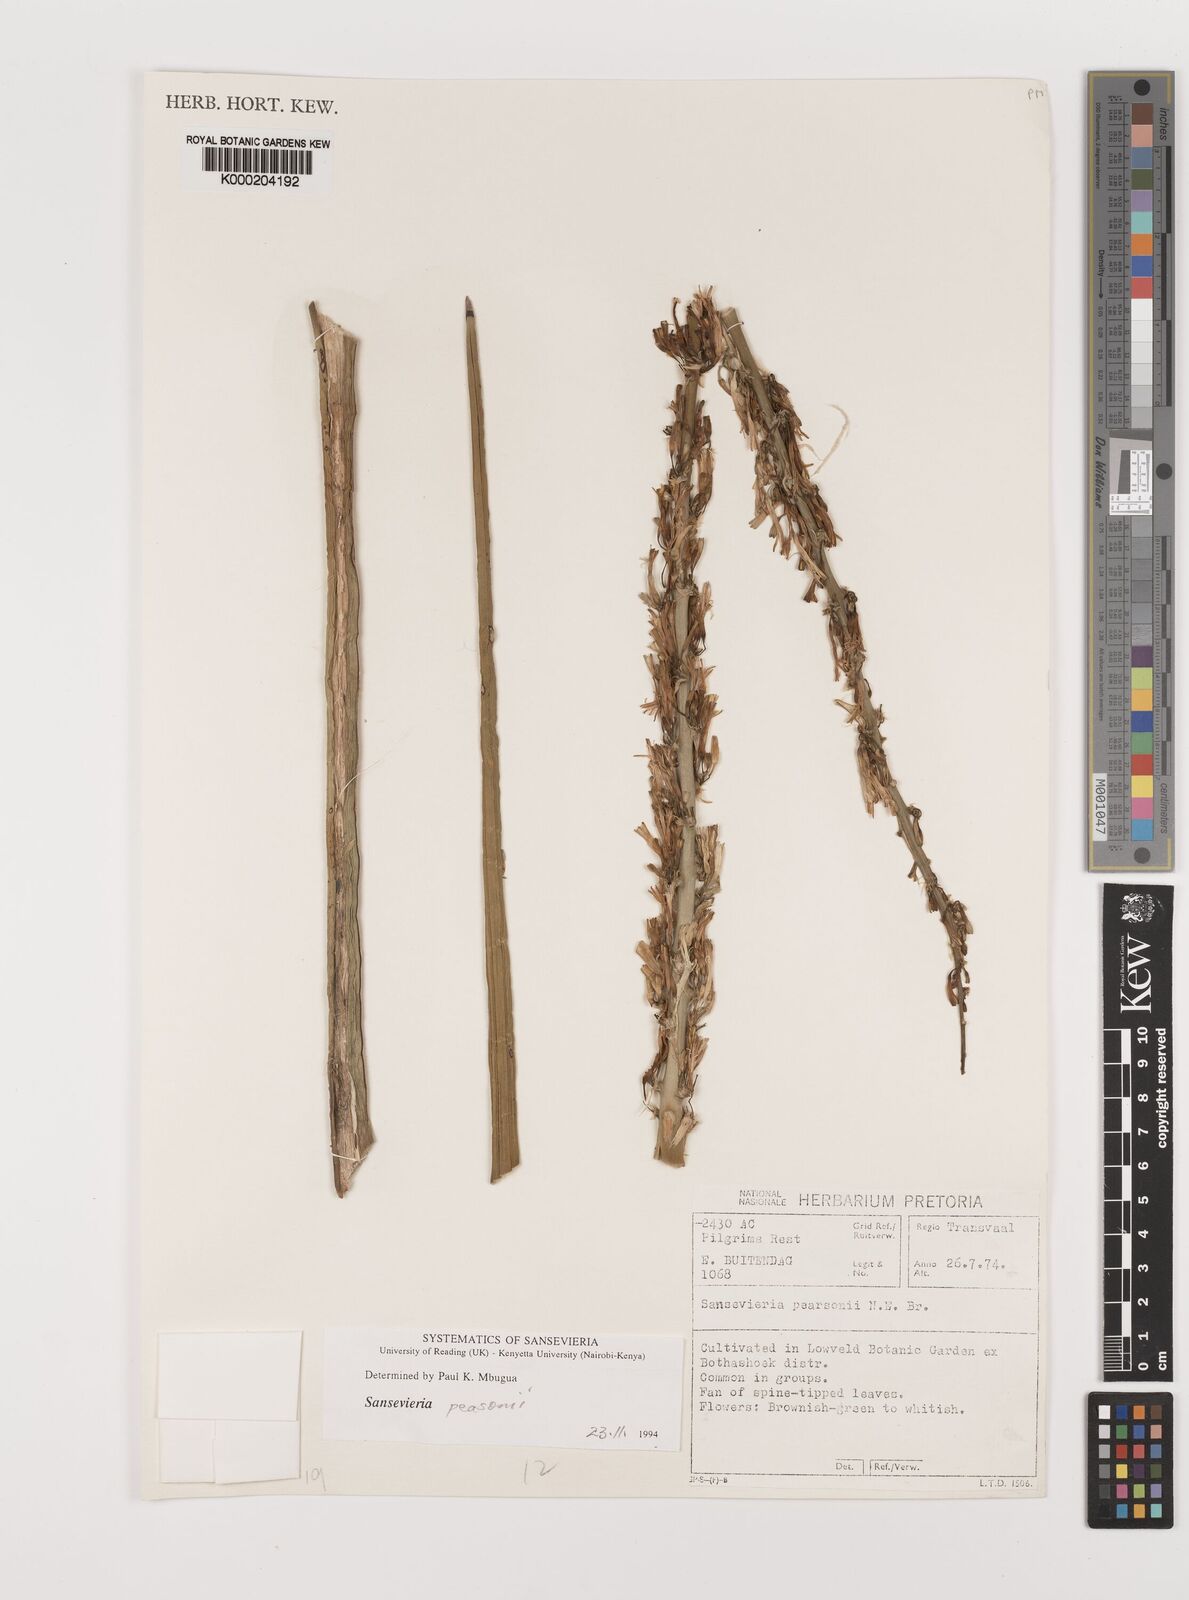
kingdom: Plantae
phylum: Tracheophyta
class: Liliopsida
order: Asparagales
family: Asparagaceae
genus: Dracaena
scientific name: Dracaena pearsonii
